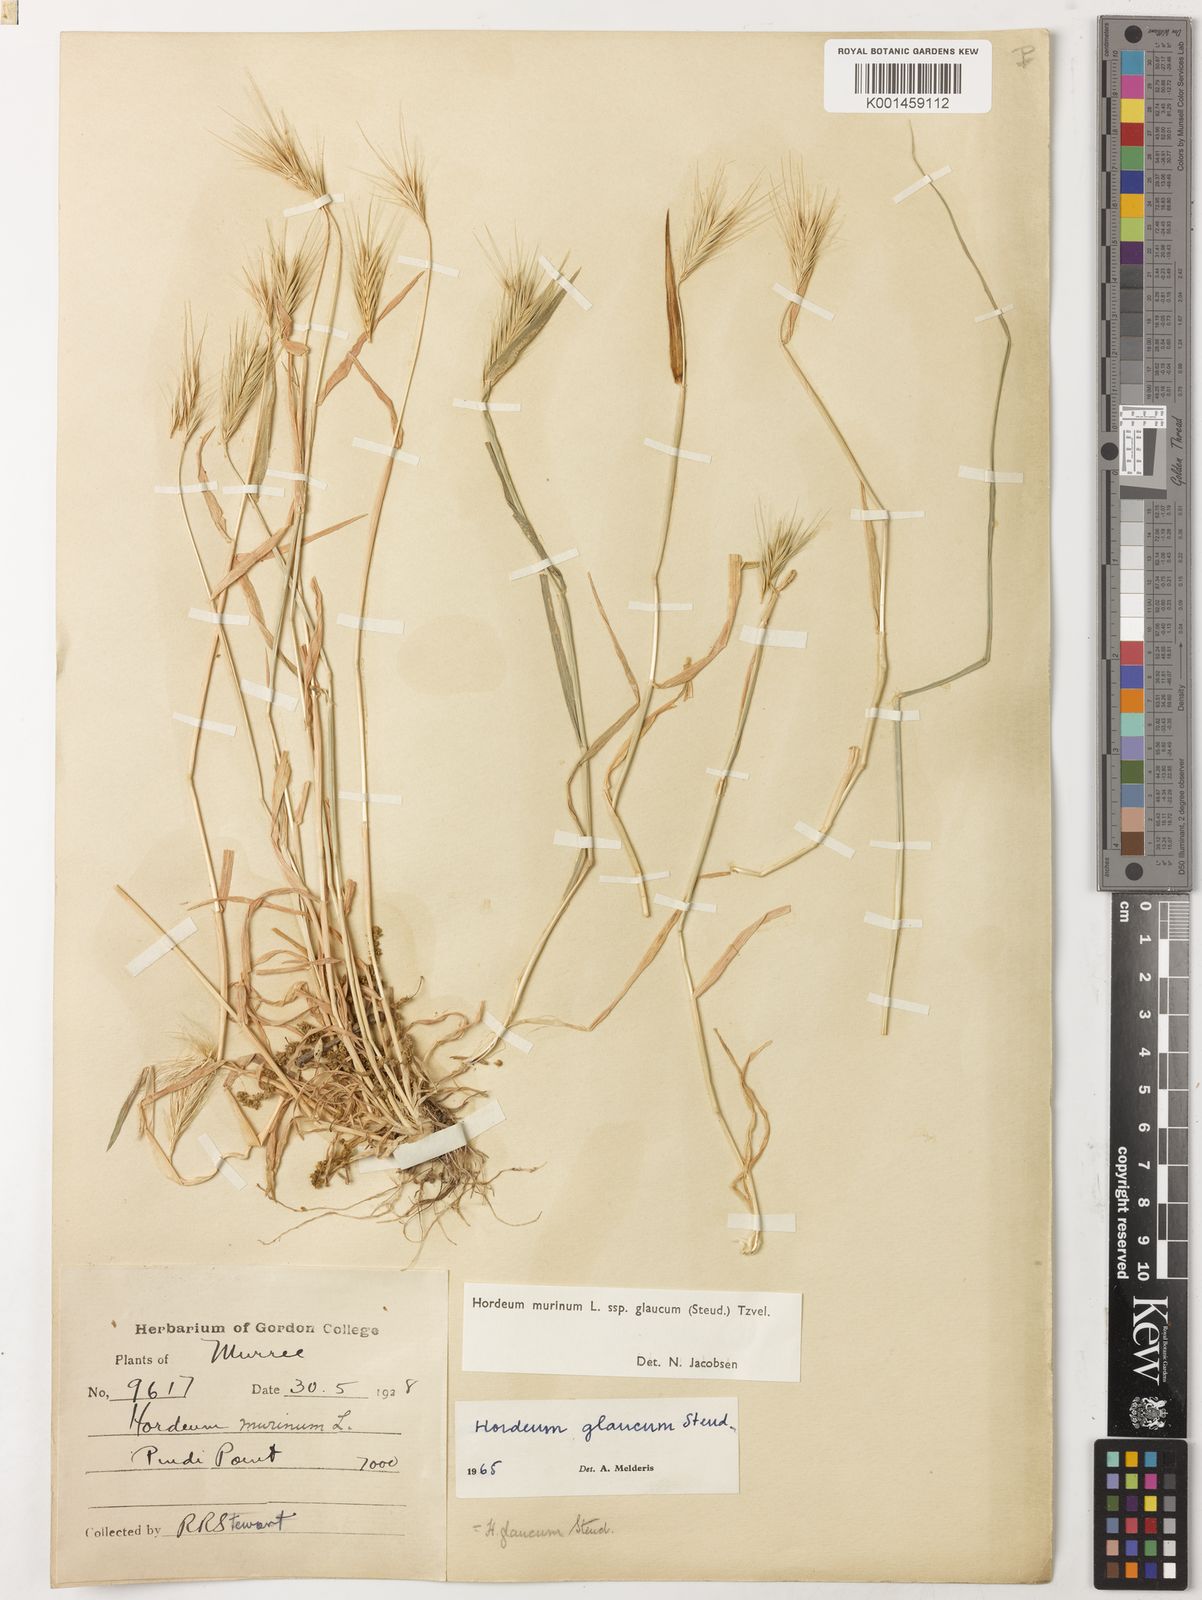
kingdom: Plantae
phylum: Tracheophyta
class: Liliopsida
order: Poales
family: Poaceae
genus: Hordeum
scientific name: Hordeum murinum
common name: Wall barley
